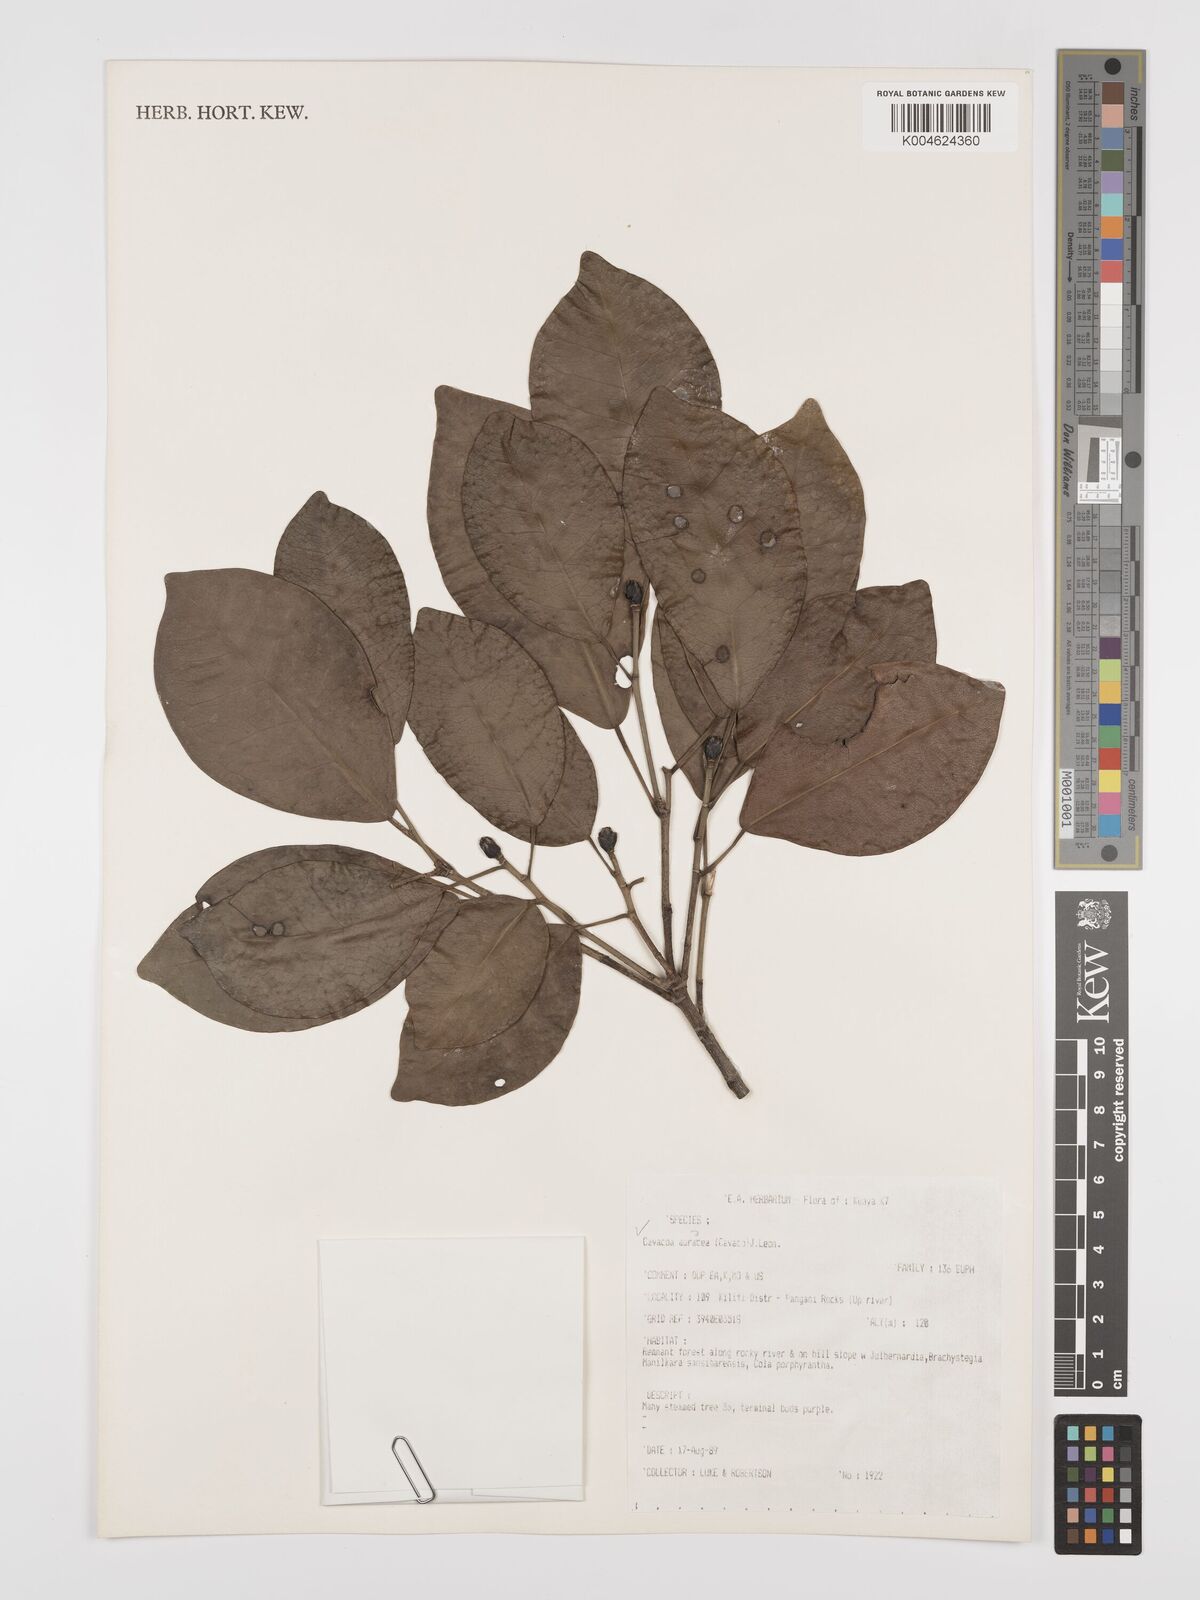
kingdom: Plantae
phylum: Tracheophyta
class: Magnoliopsida
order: Malpighiales
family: Euphorbiaceae
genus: Cavacoa
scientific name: Cavacoa aurea
